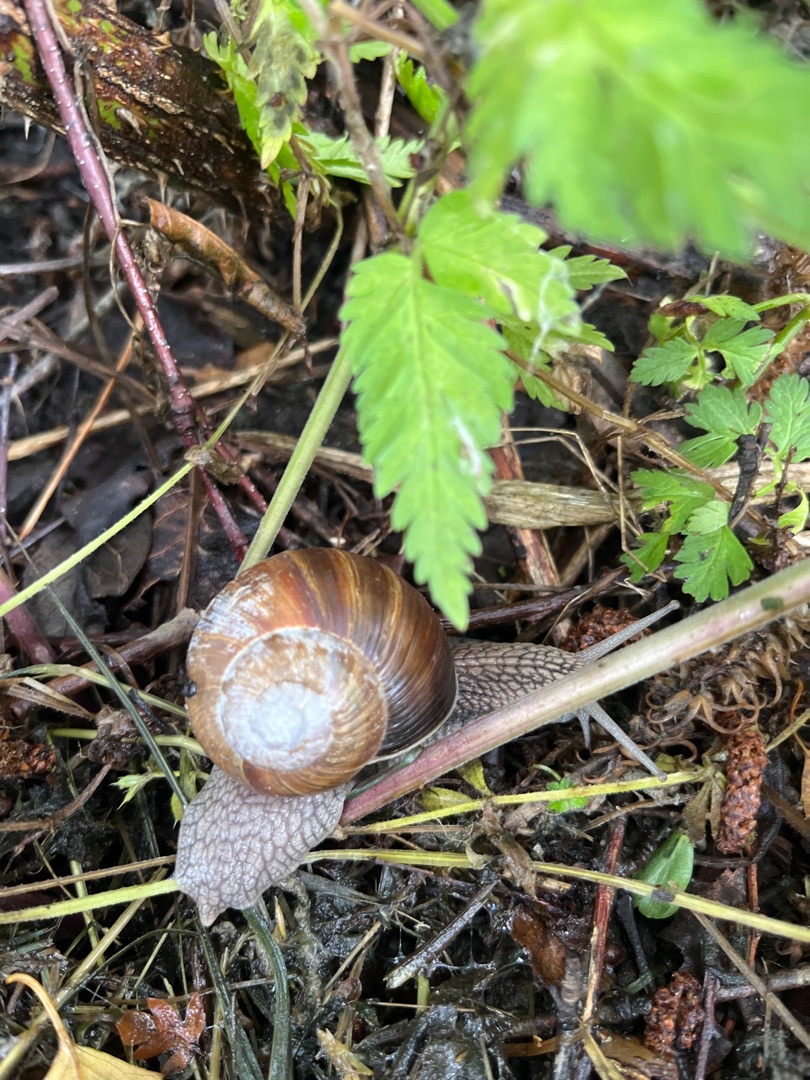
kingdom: Animalia
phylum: Mollusca
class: Gastropoda
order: Stylommatophora
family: Helicidae
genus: Helix
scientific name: Helix pomatia
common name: Vinbjergsnegl
